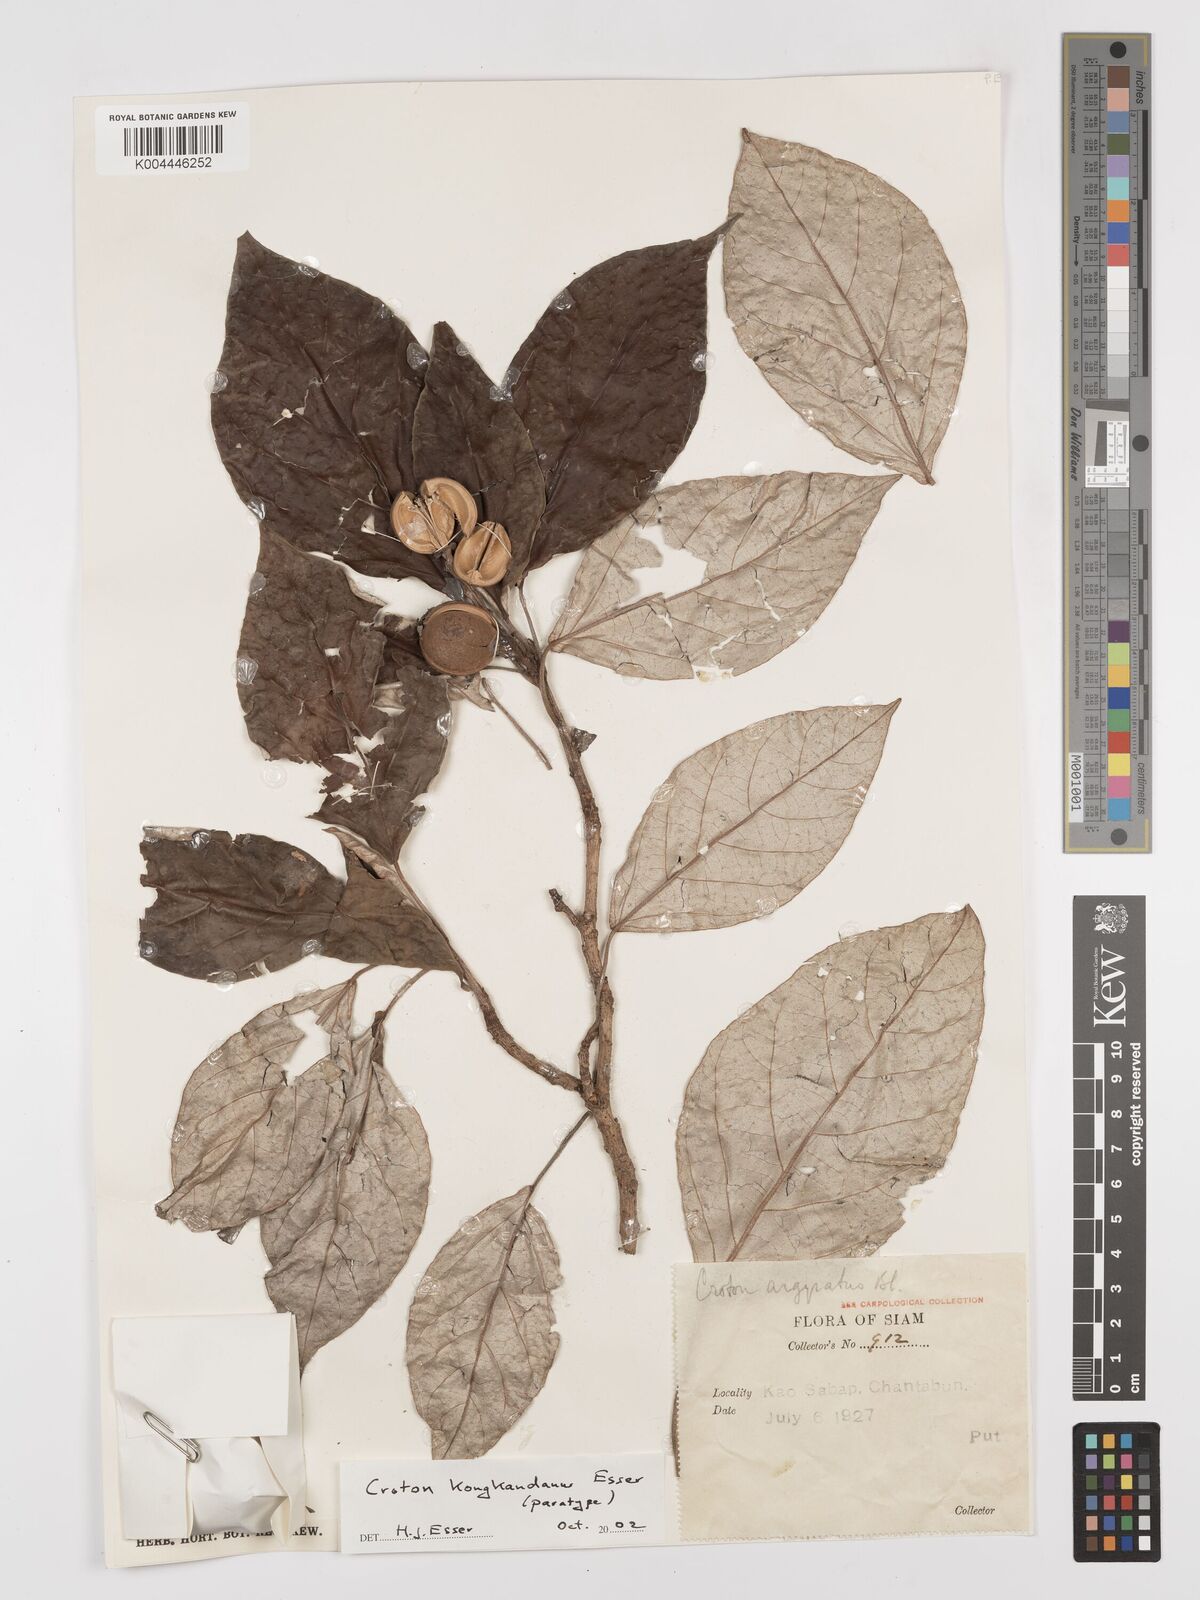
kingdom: Plantae
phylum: Tracheophyta
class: Magnoliopsida
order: Malpighiales
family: Euphorbiaceae
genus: Croton
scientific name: Croton kongkandanus
